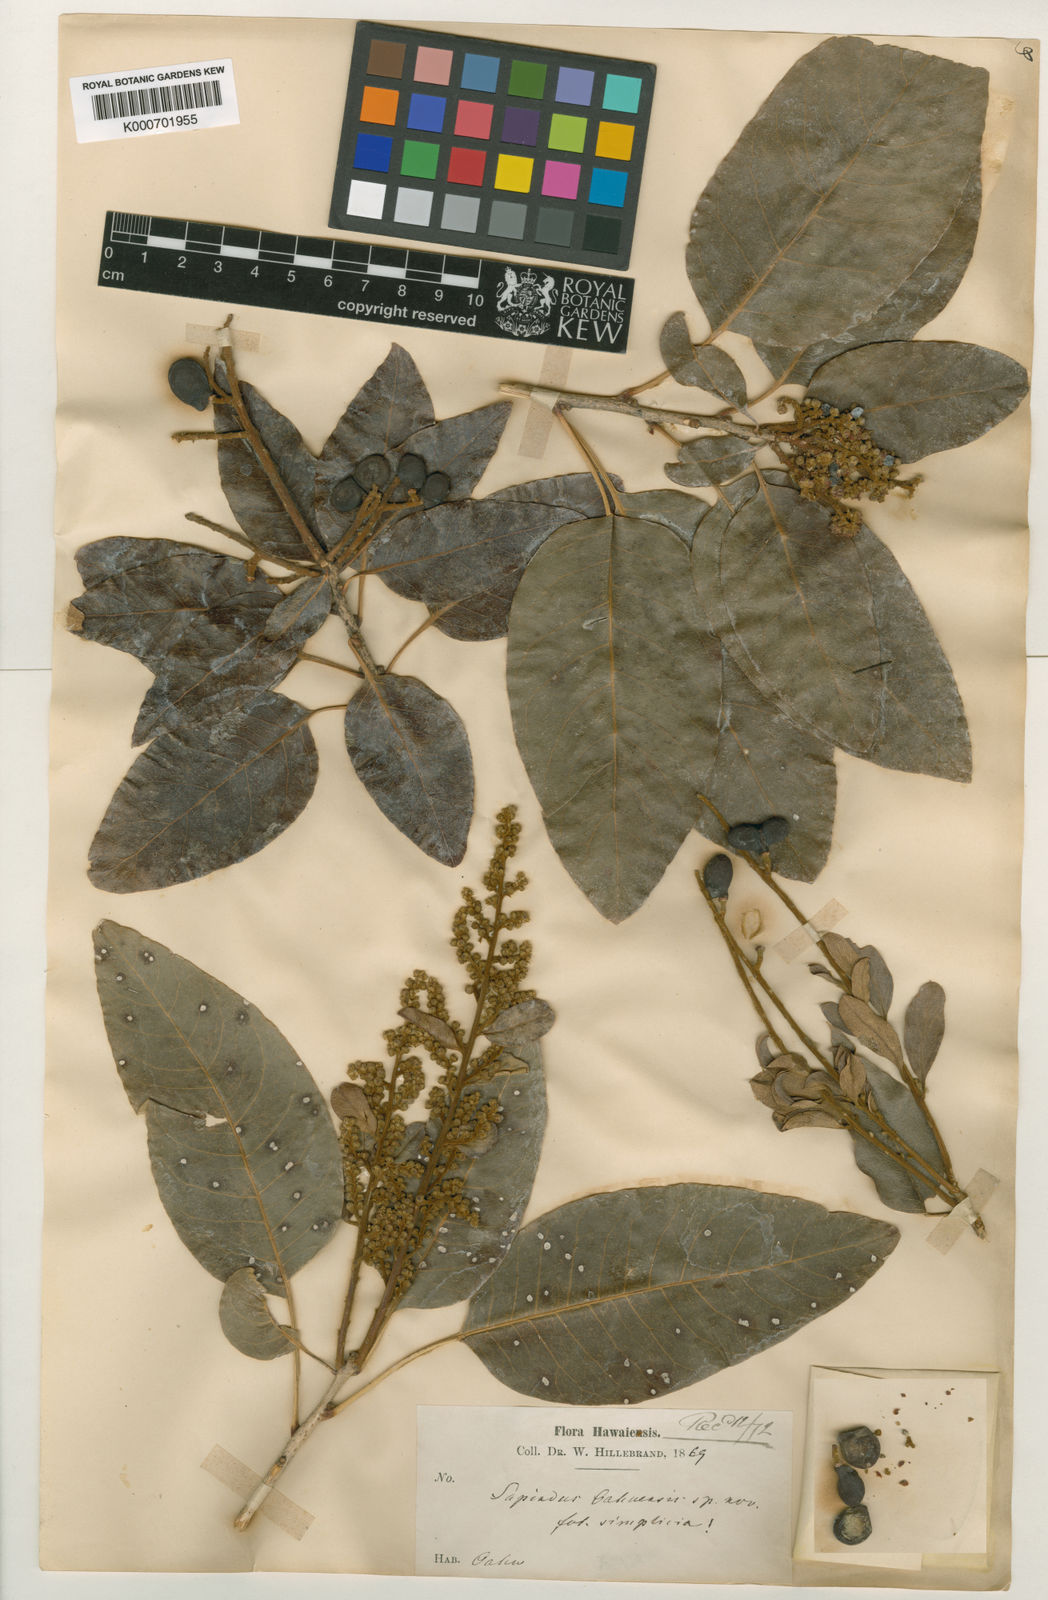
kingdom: Plantae
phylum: Tracheophyta
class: Magnoliopsida
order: Sapindales
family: Sapindaceae
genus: Sapindus
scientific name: Sapindus
